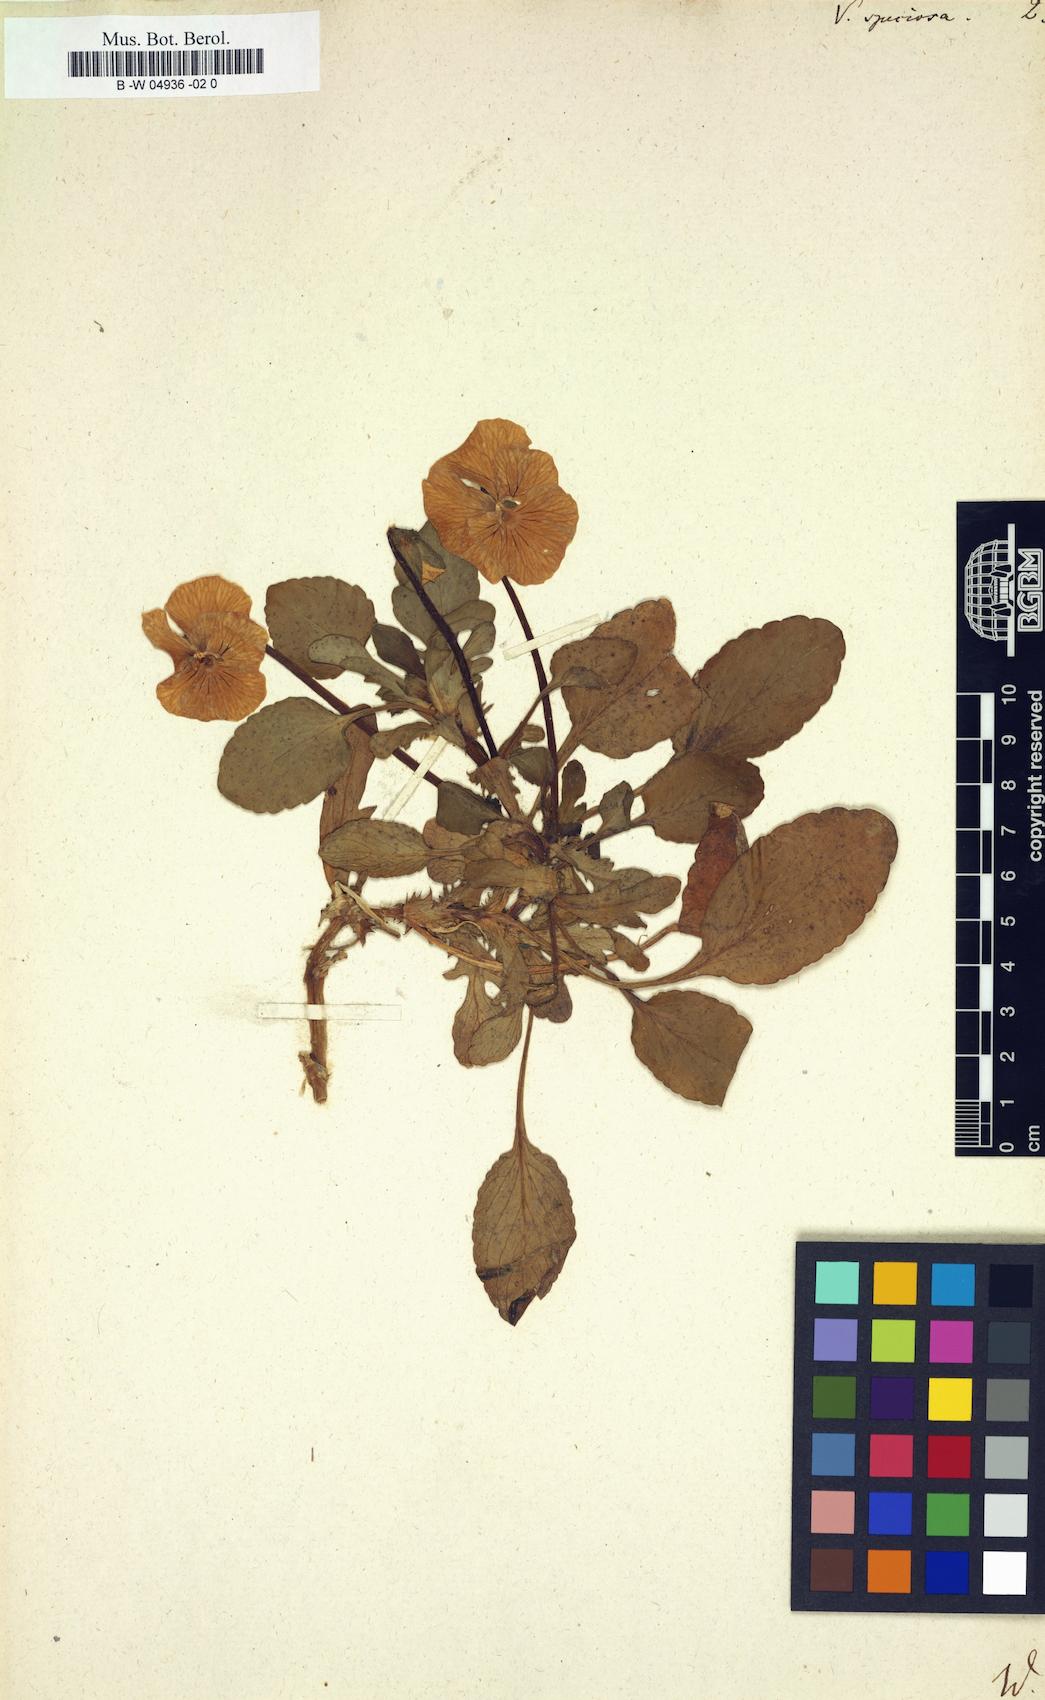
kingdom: Plantae
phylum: Tracheophyta
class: Magnoliopsida
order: Malpighiales
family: Violaceae
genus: Viola
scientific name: Viola
